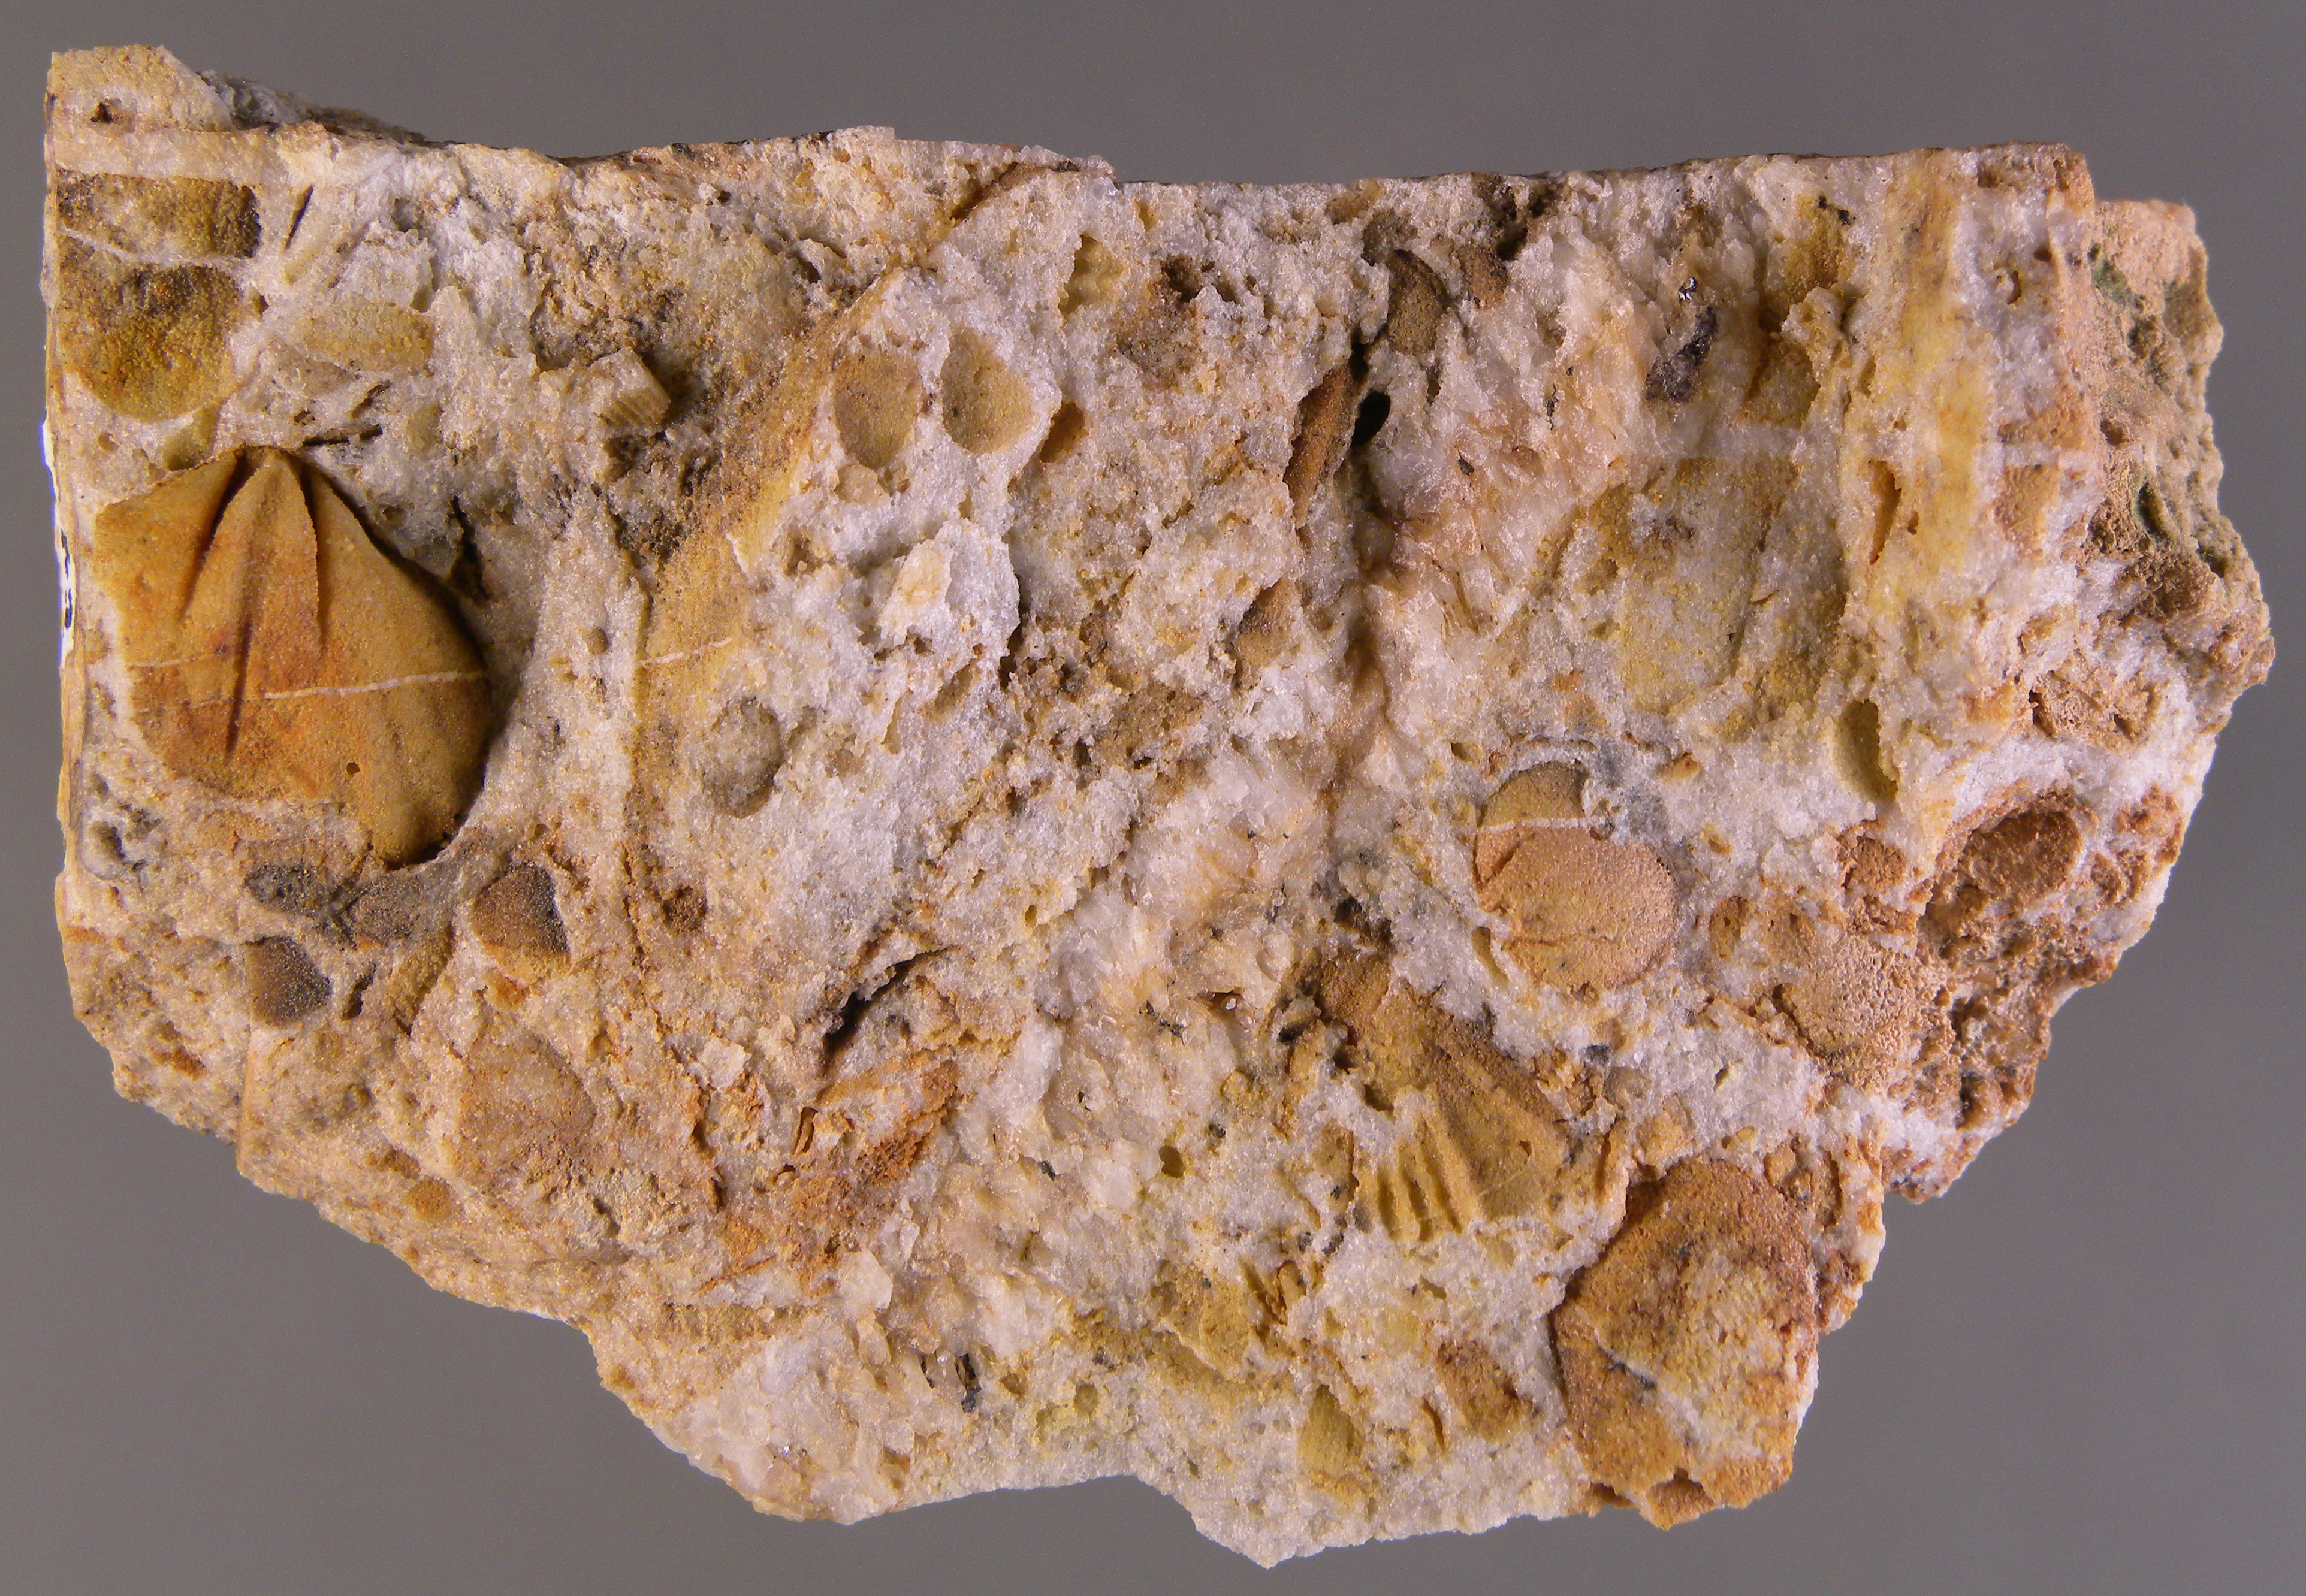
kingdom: Animalia
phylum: Brachiopoda
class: Rhynchonellata
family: Hysterolitidae
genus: Struveina
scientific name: Struveina
